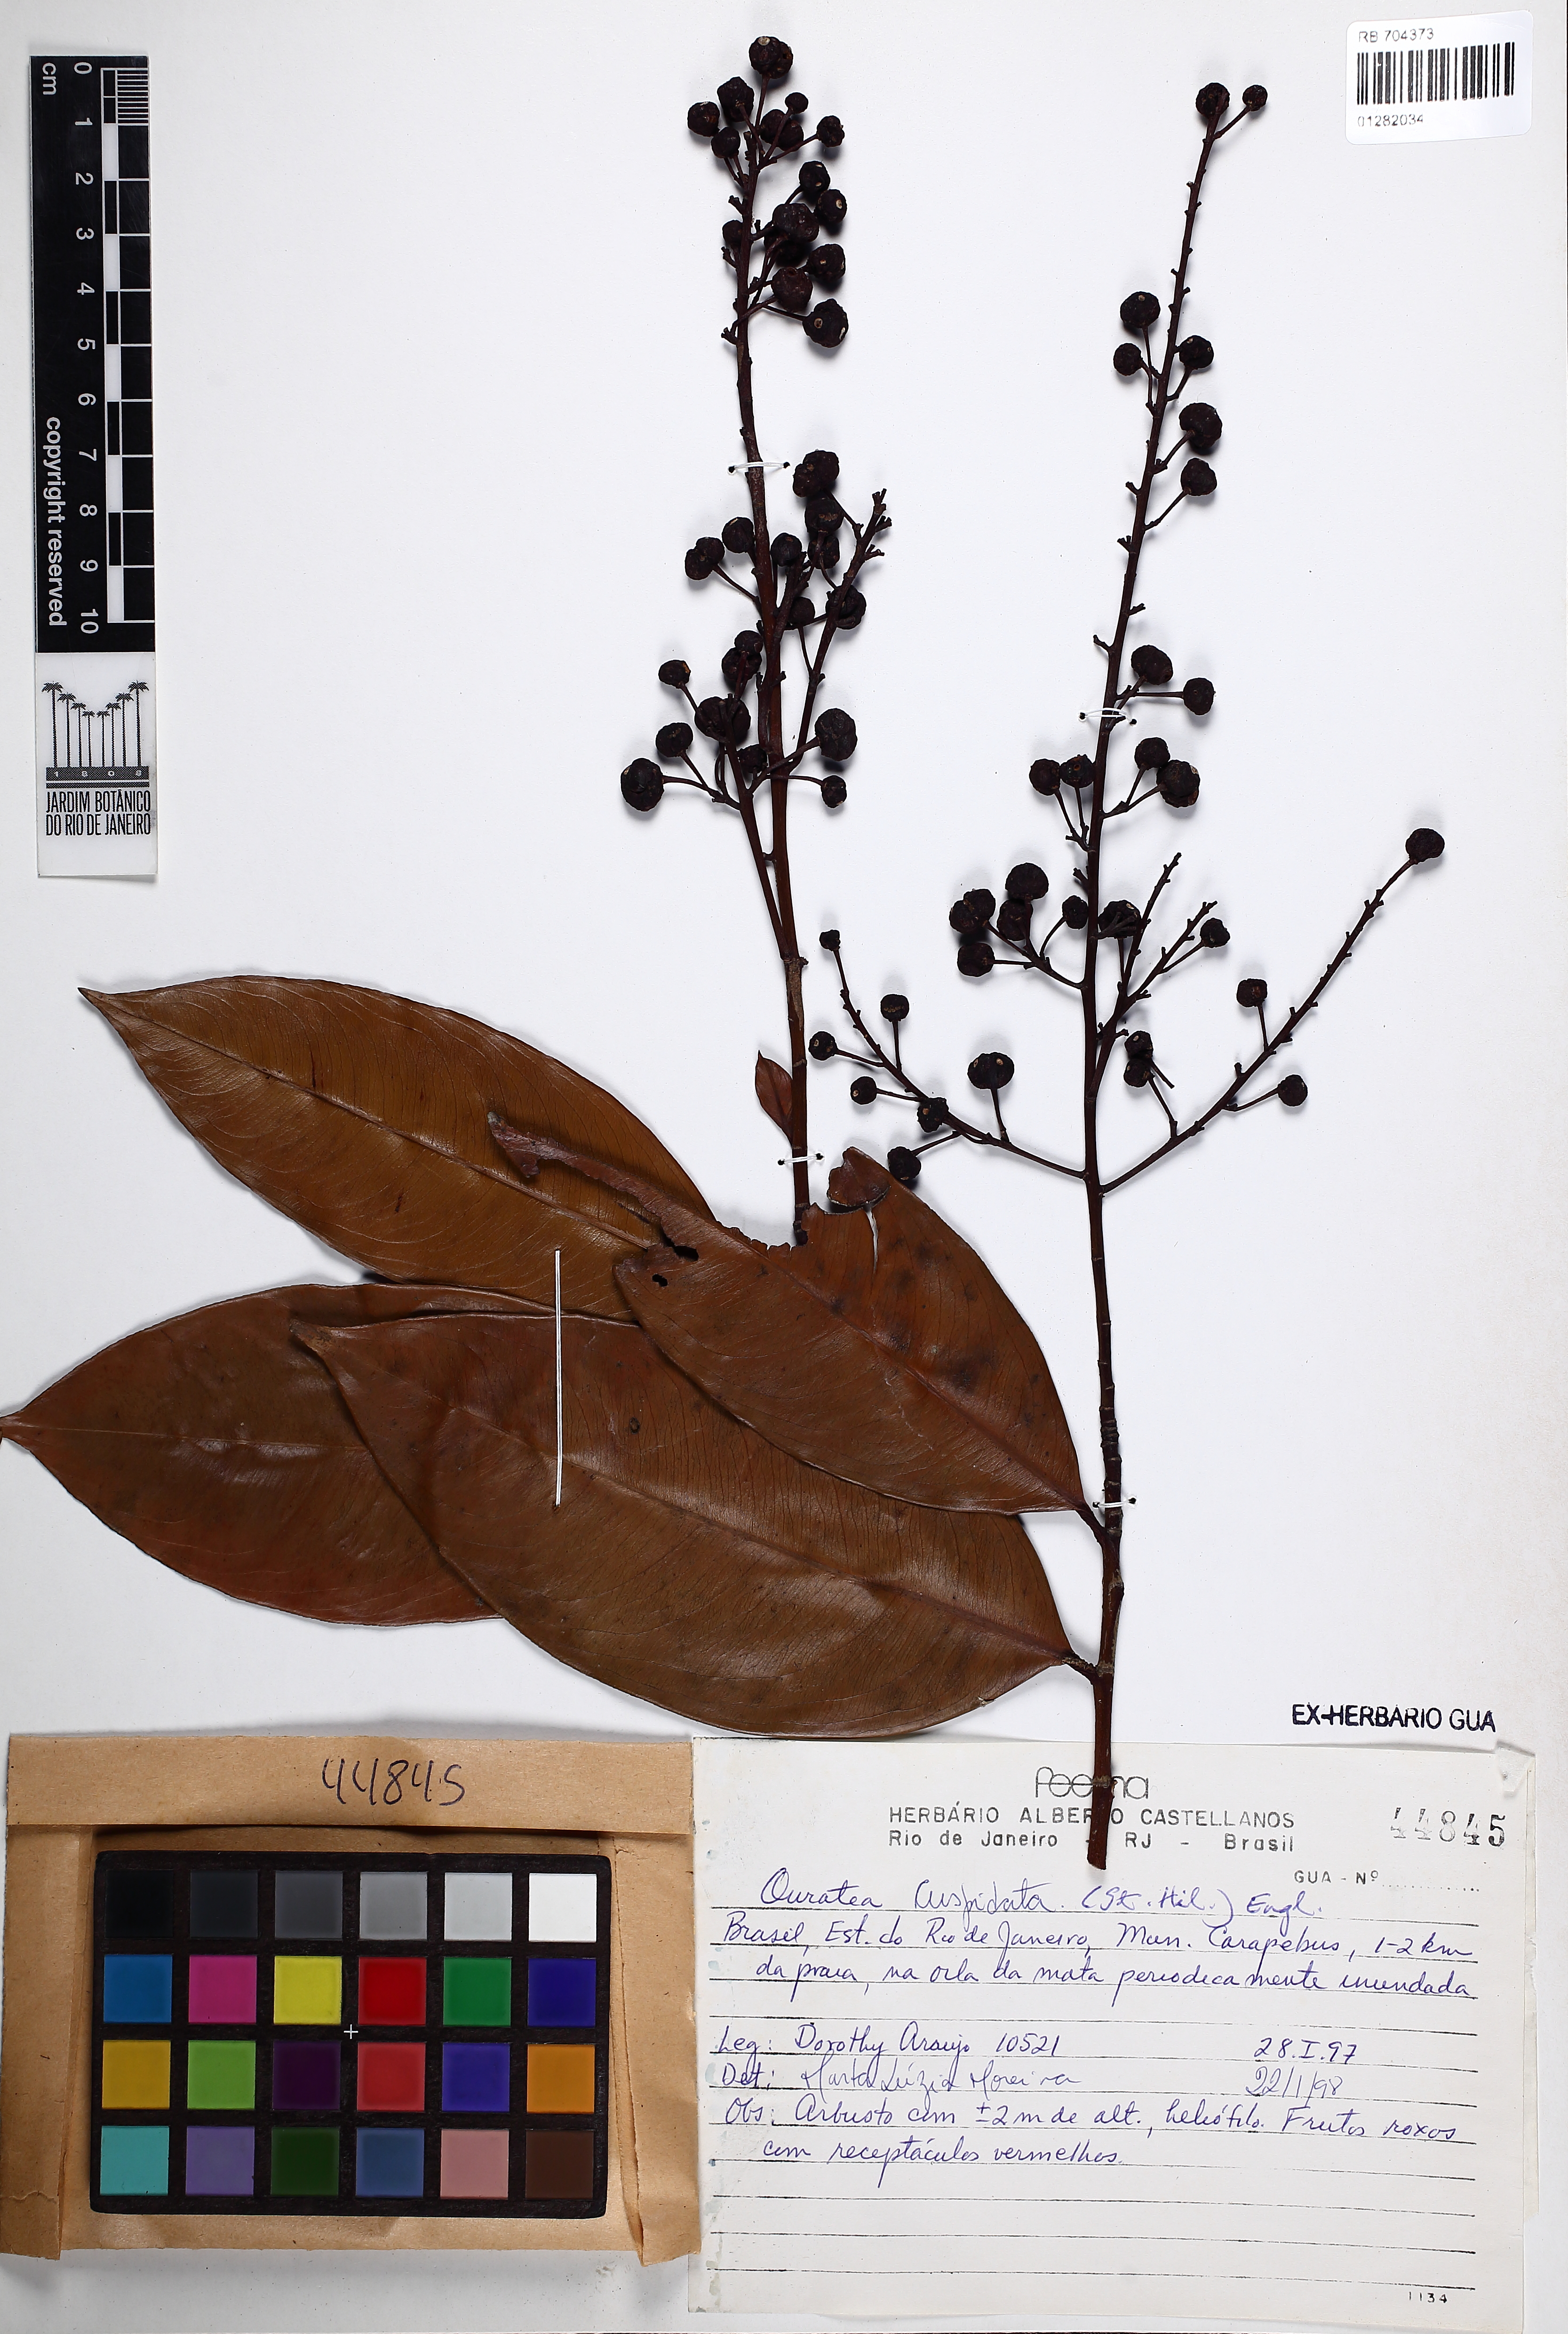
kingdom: Plantae
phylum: Tracheophyta
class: Magnoliopsida
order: Malpighiales
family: Ochnaceae
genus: Ouratea
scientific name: Ouratea cuspidata
